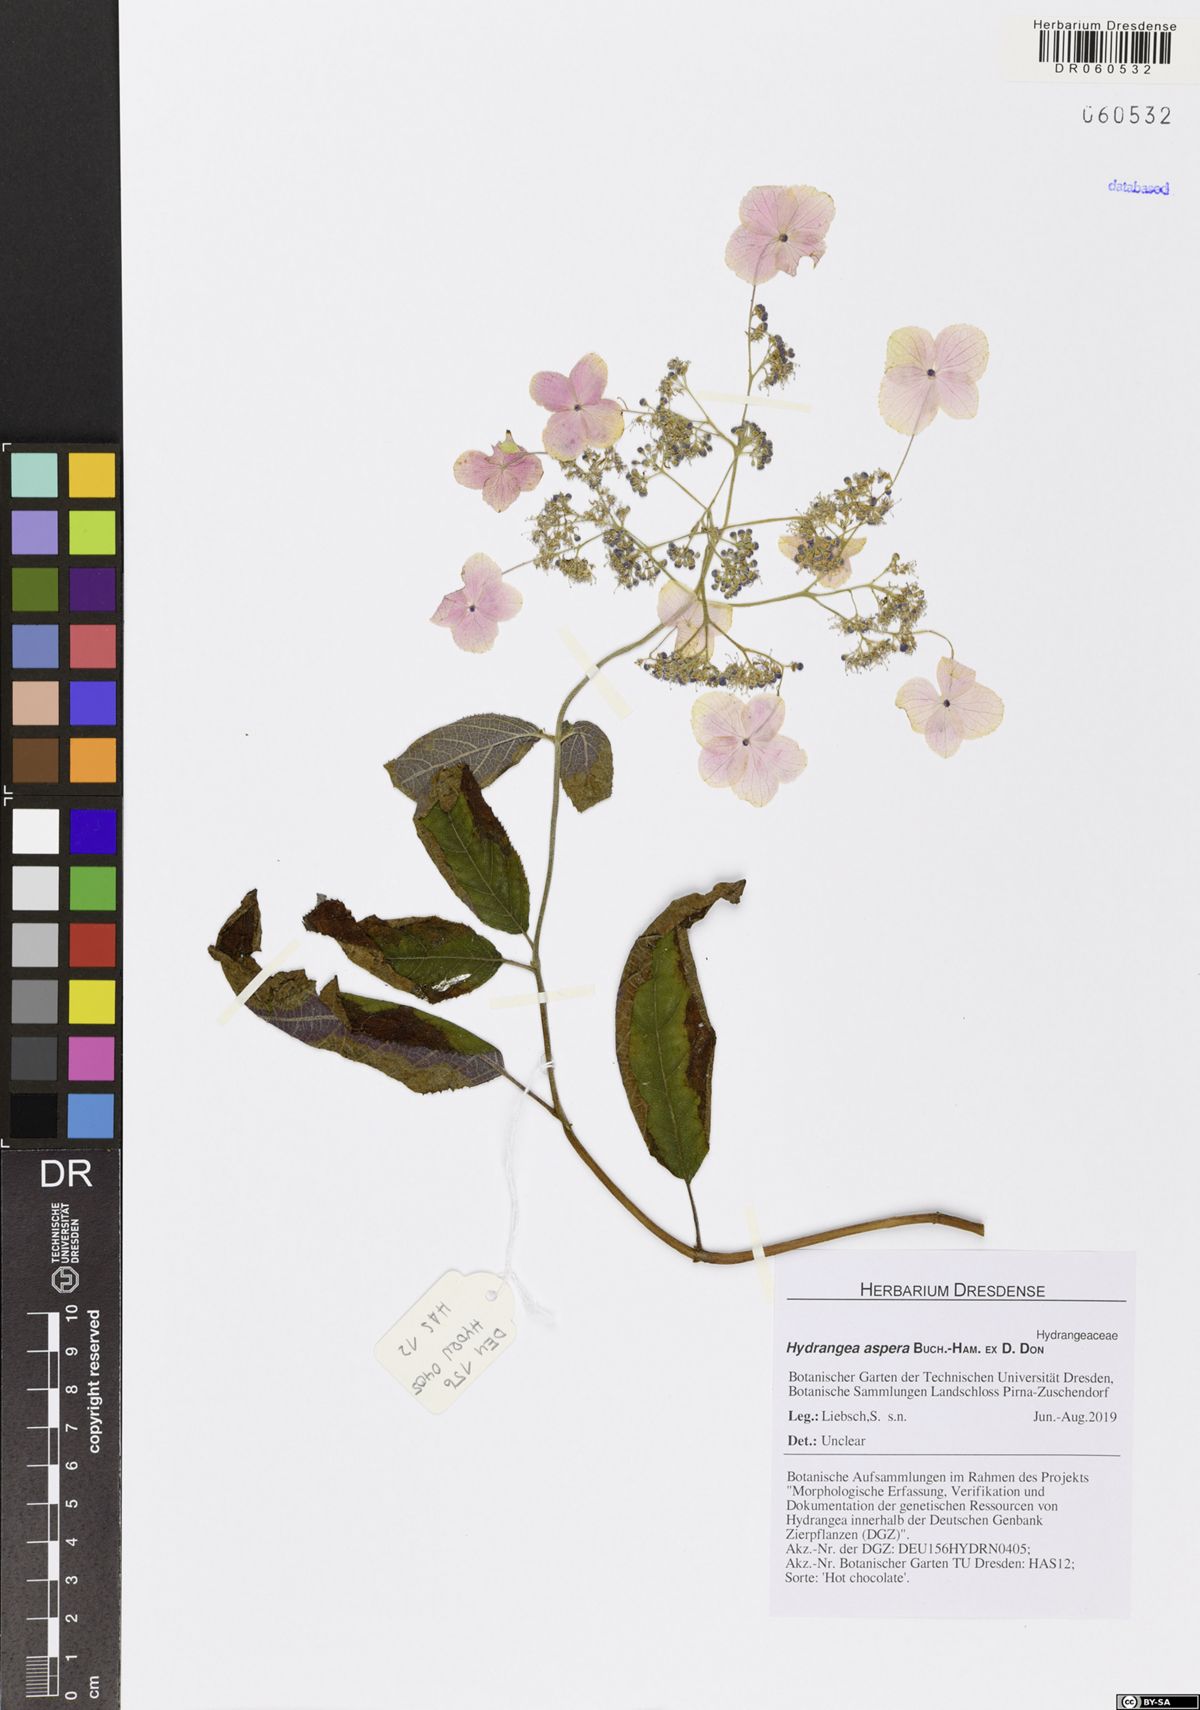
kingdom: Plantae
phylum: Tracheophyta
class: Magnoliopsida
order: Cornales
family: Hydrangeaceae
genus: Hydrangea
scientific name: Hydrangea aspera
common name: Rough-leaf hydrangea
